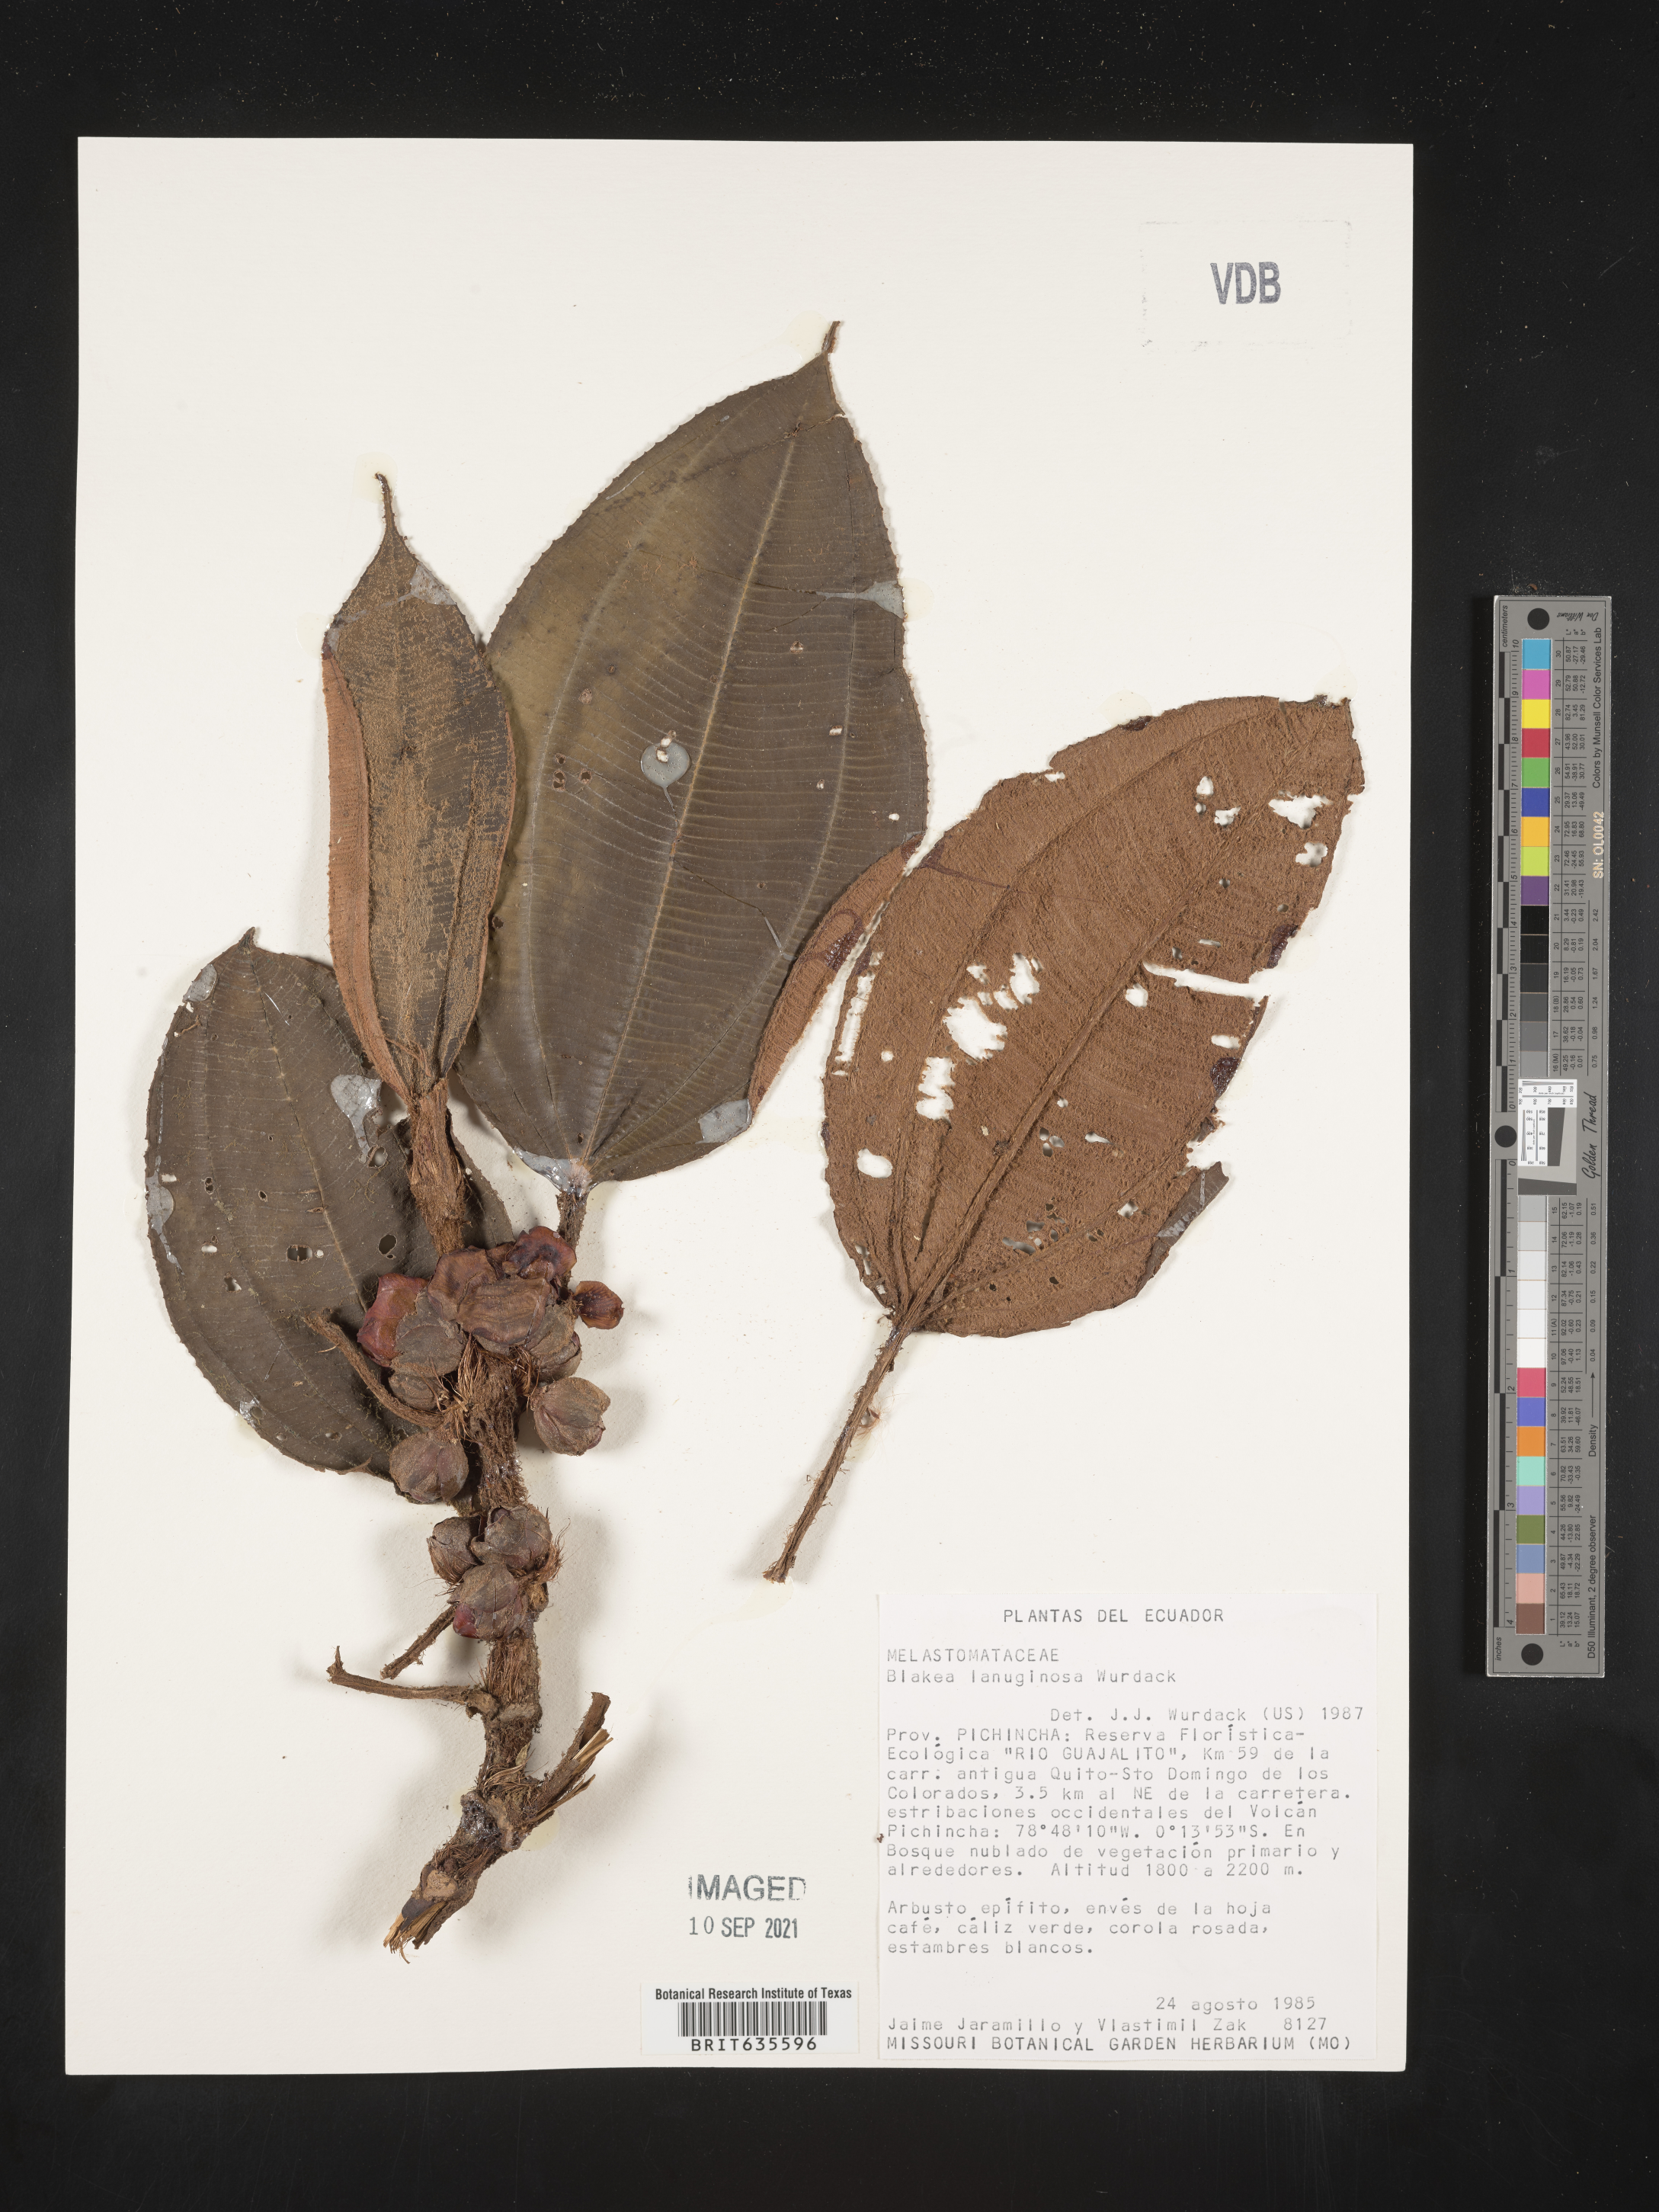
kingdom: Plantae
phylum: Tracheophyta
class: Magnoliopsida
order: Myrtales
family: Melastomataceae
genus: Blakea
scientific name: Blakea
